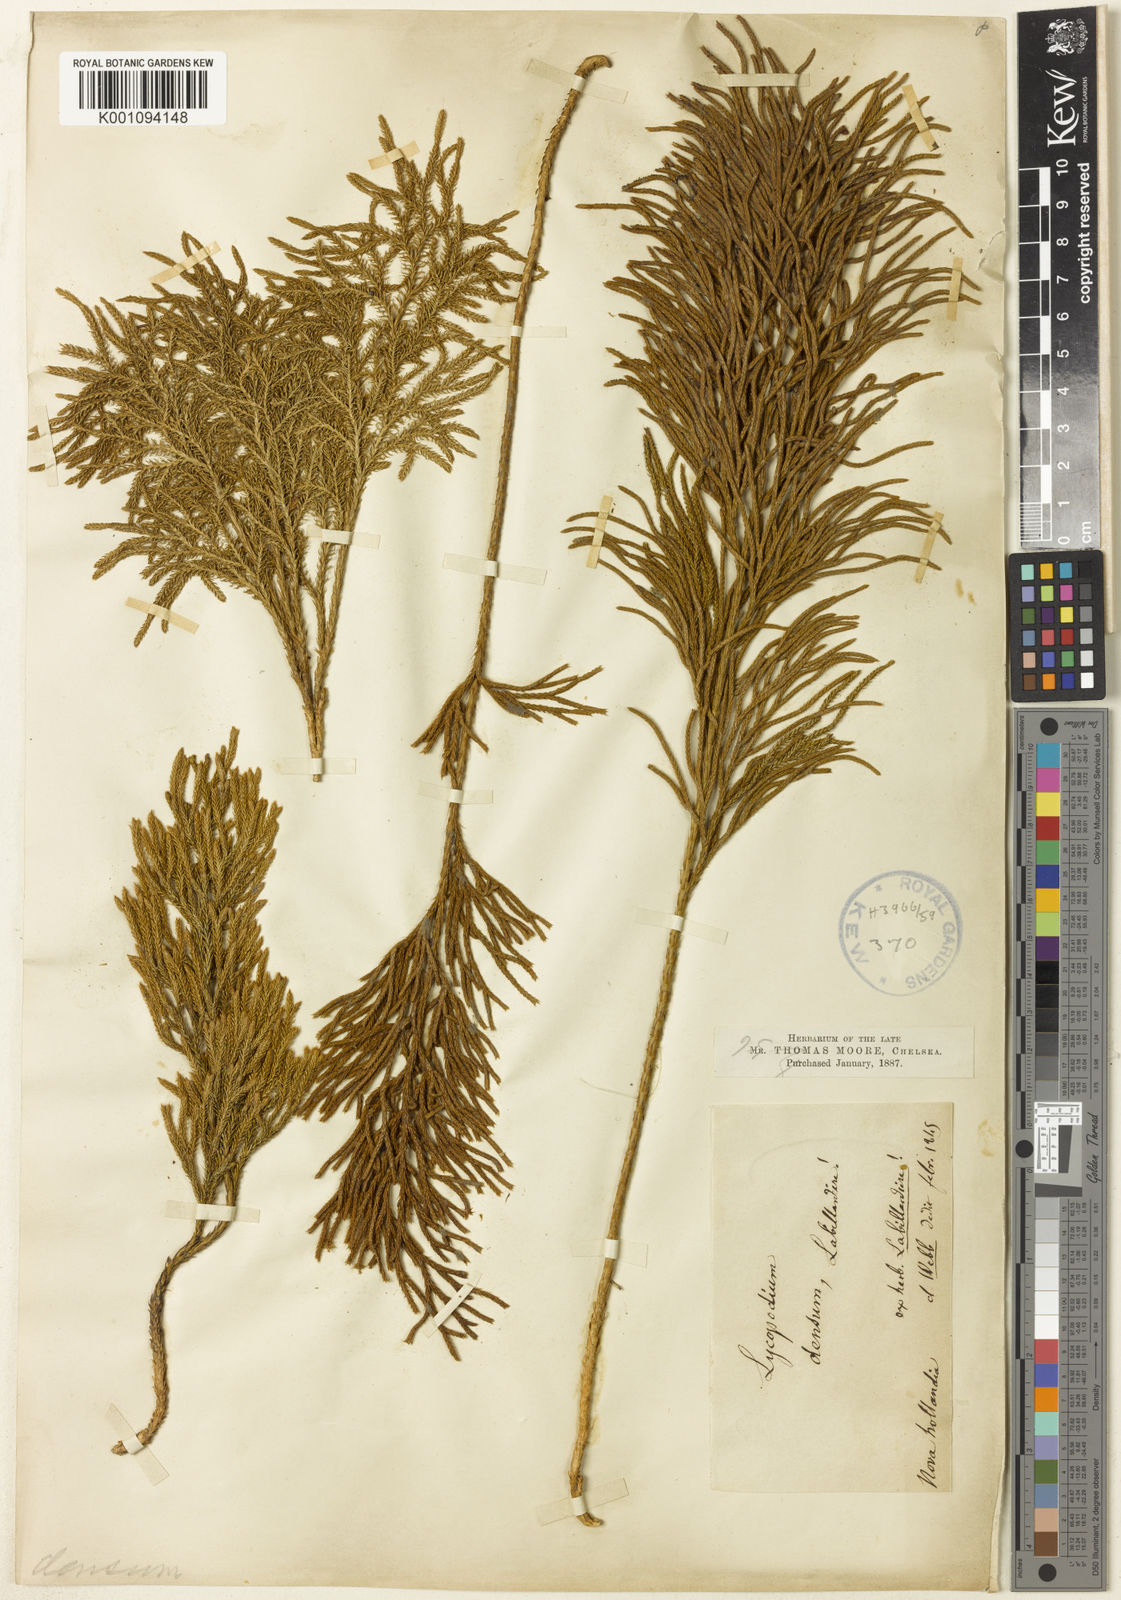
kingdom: Plantae
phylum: Tracheophyta
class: Lycopodiopsida
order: Lycopodiales
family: Lycopodiaceae
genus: Pseudolycopodium
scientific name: Pseudolycopodium densum
